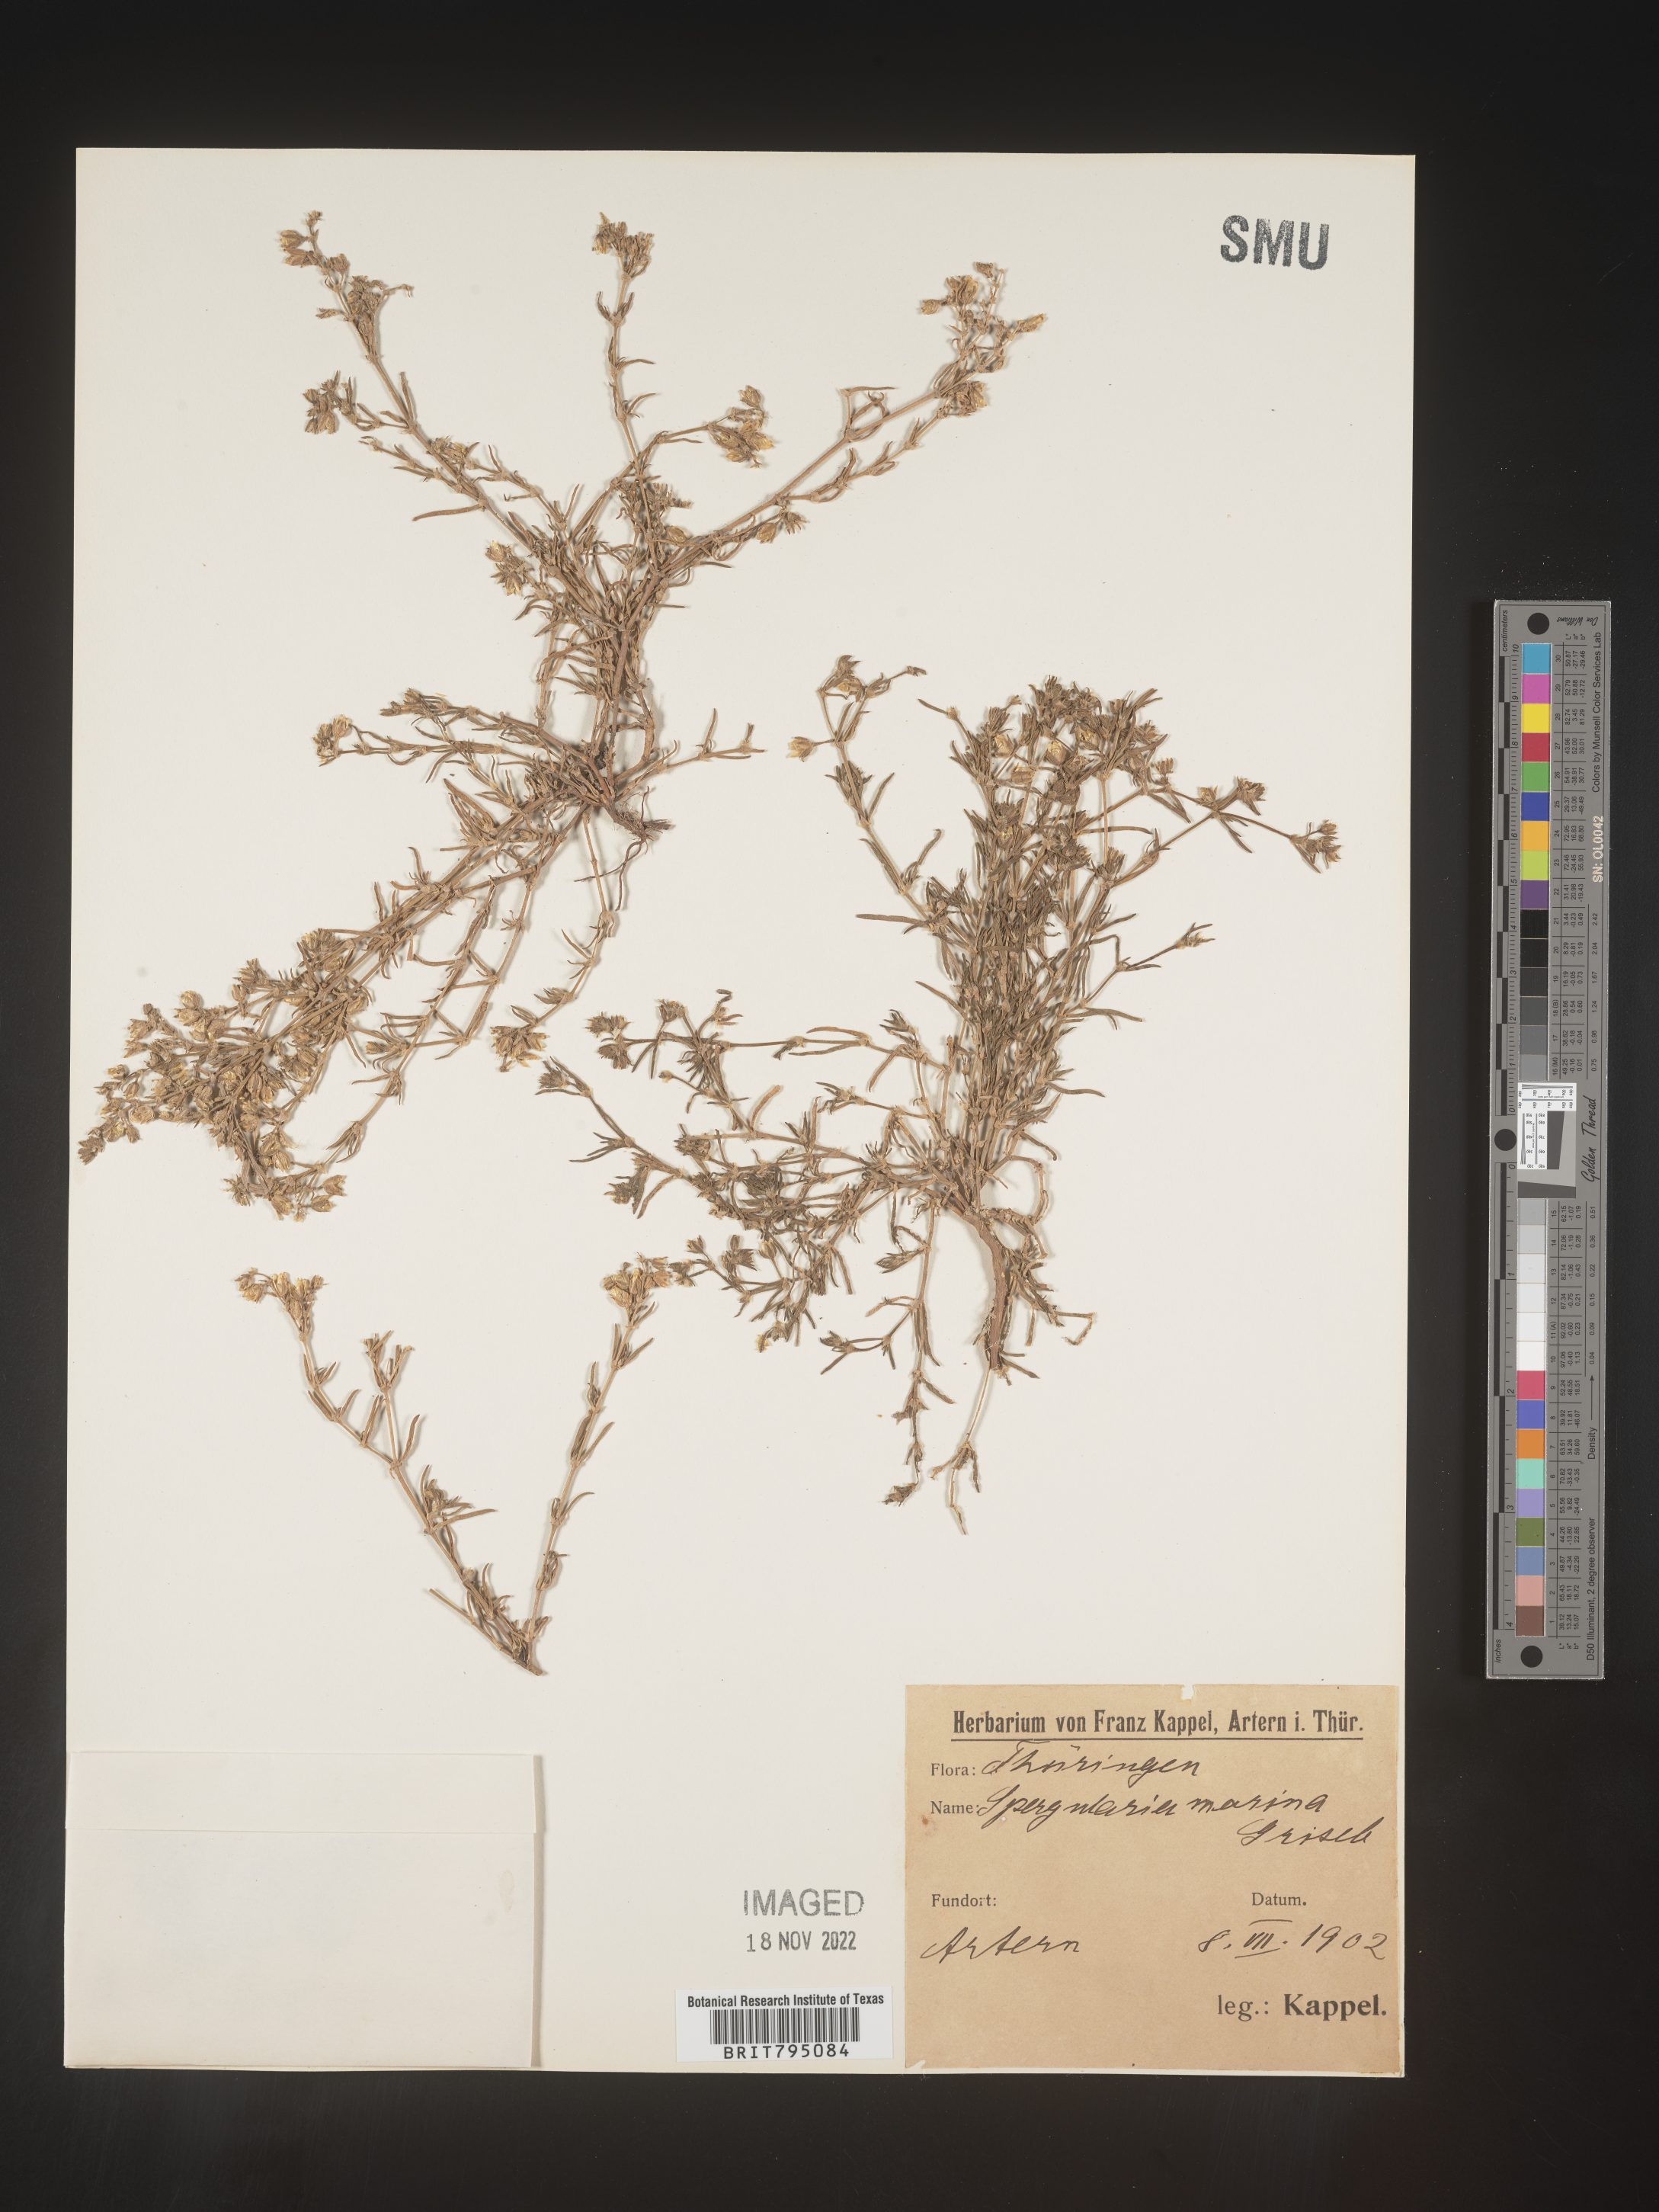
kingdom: Plantae
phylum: Tracheophyta
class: Magnoliopsida
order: Caryophyllales
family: Caryophyllaceae
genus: Spergularia
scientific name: Spergularia marina
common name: Lesser sea-spurrey
